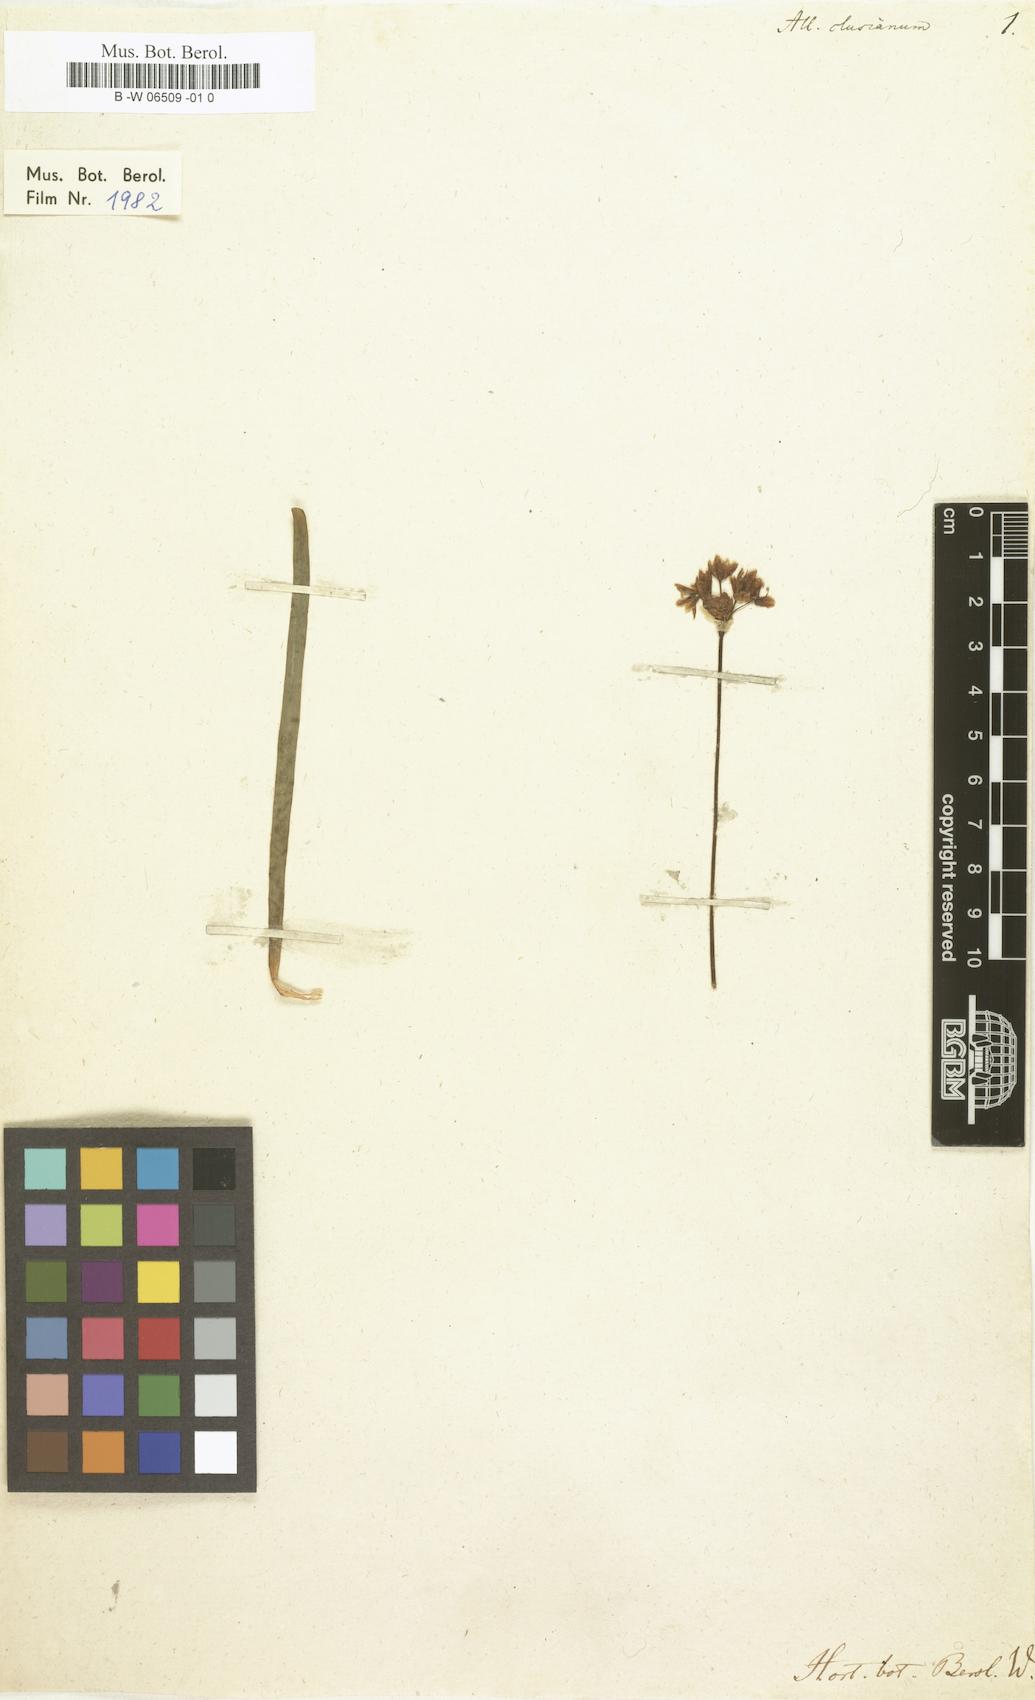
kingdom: Plantae
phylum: Tracheophyta
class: Liliopsida
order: Asparagales
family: Amaryllidaceae
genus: Allium
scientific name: Allium
